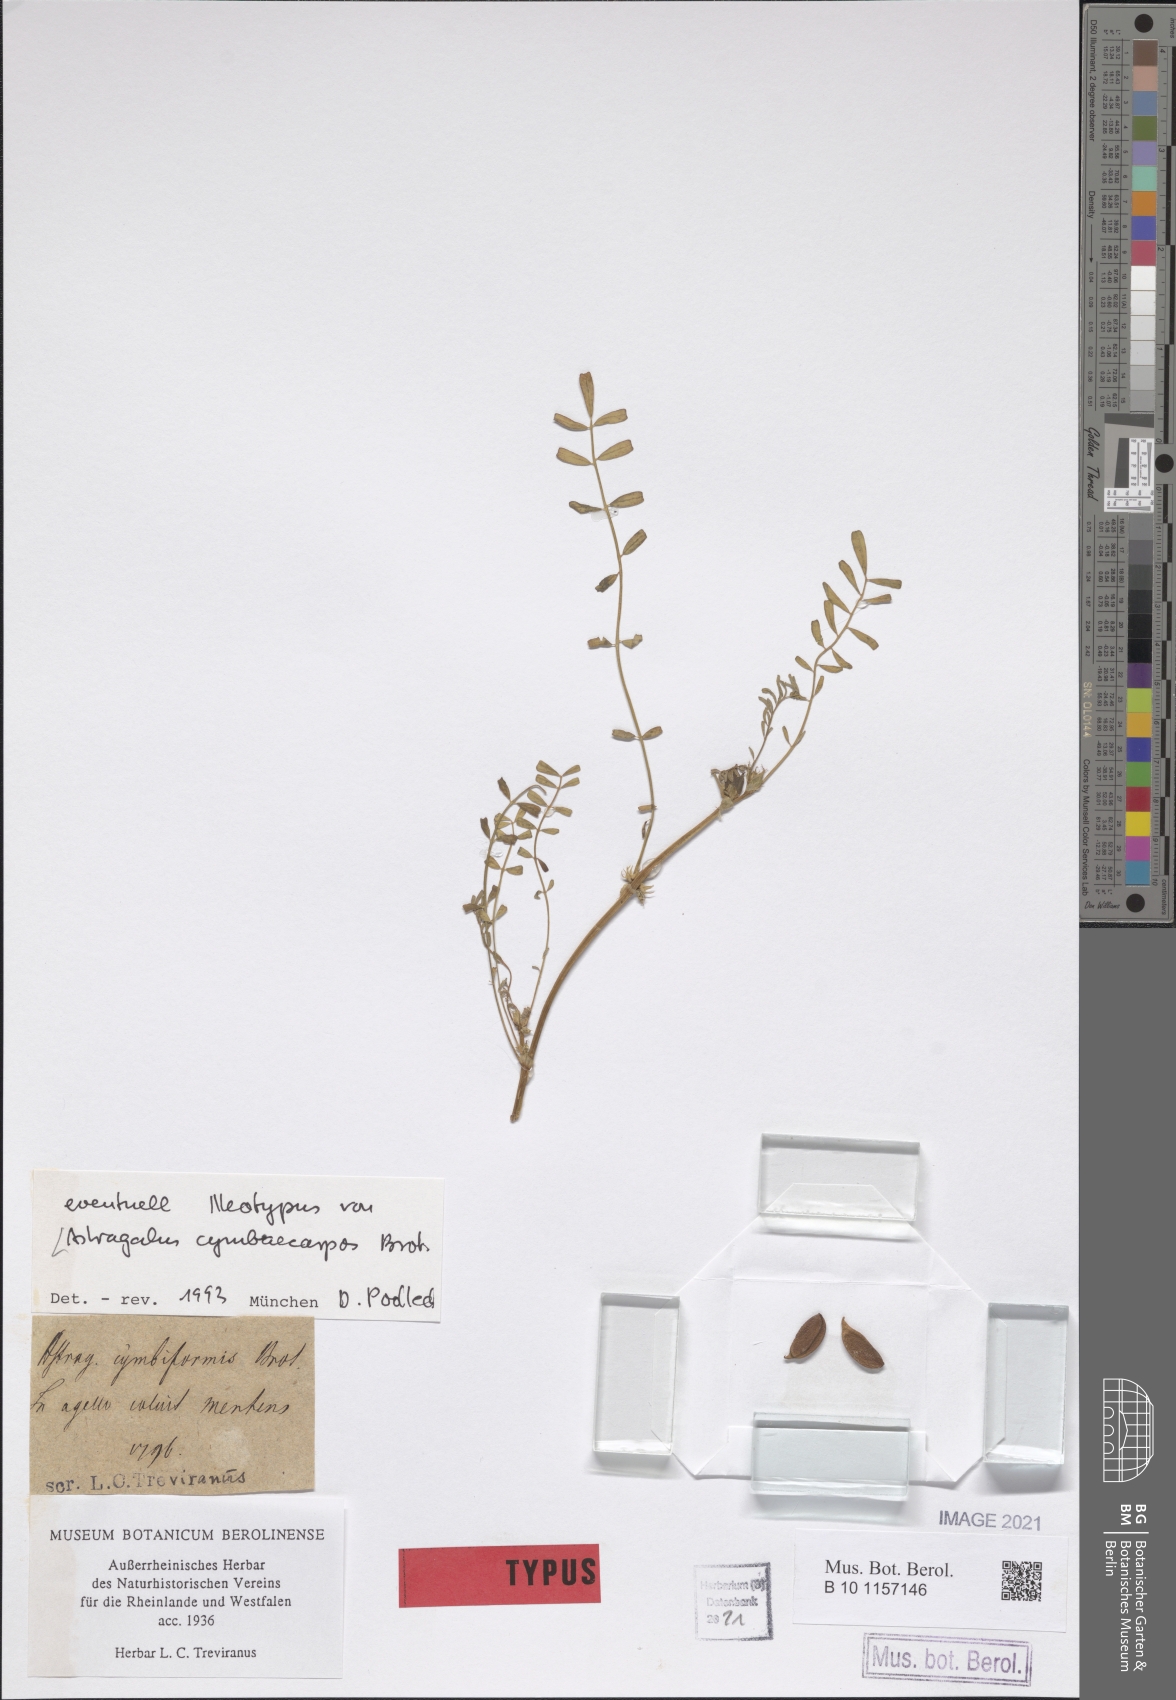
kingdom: Plantae
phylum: Tracheophyta
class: Magnoliopsida
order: Fabales
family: Fabaceae
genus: Astragalus
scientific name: Astragalus cymbicarpos
